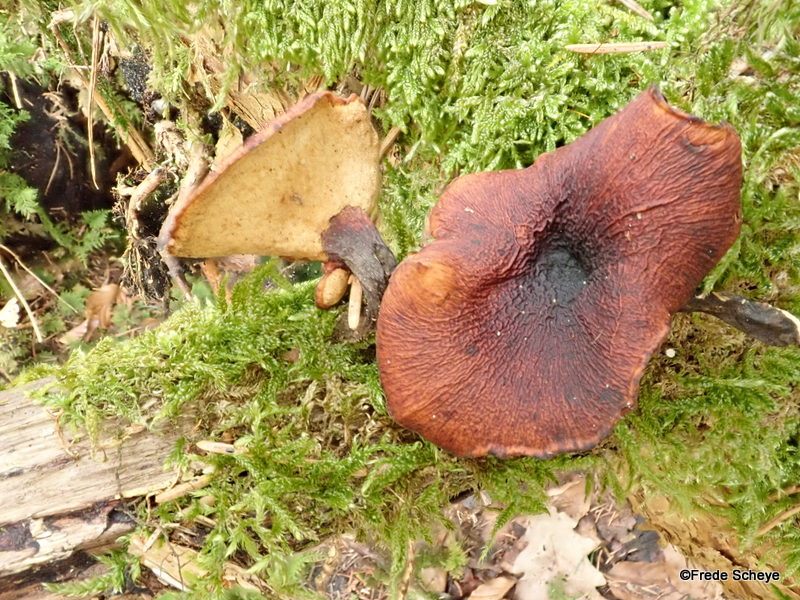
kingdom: Fungi
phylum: Basidiomycota
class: Agaricomycetes
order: Polyporales
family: Polyporaceae
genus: Cerioporus
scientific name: Cerioporus varius
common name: foranderlig stilkporesvamp
